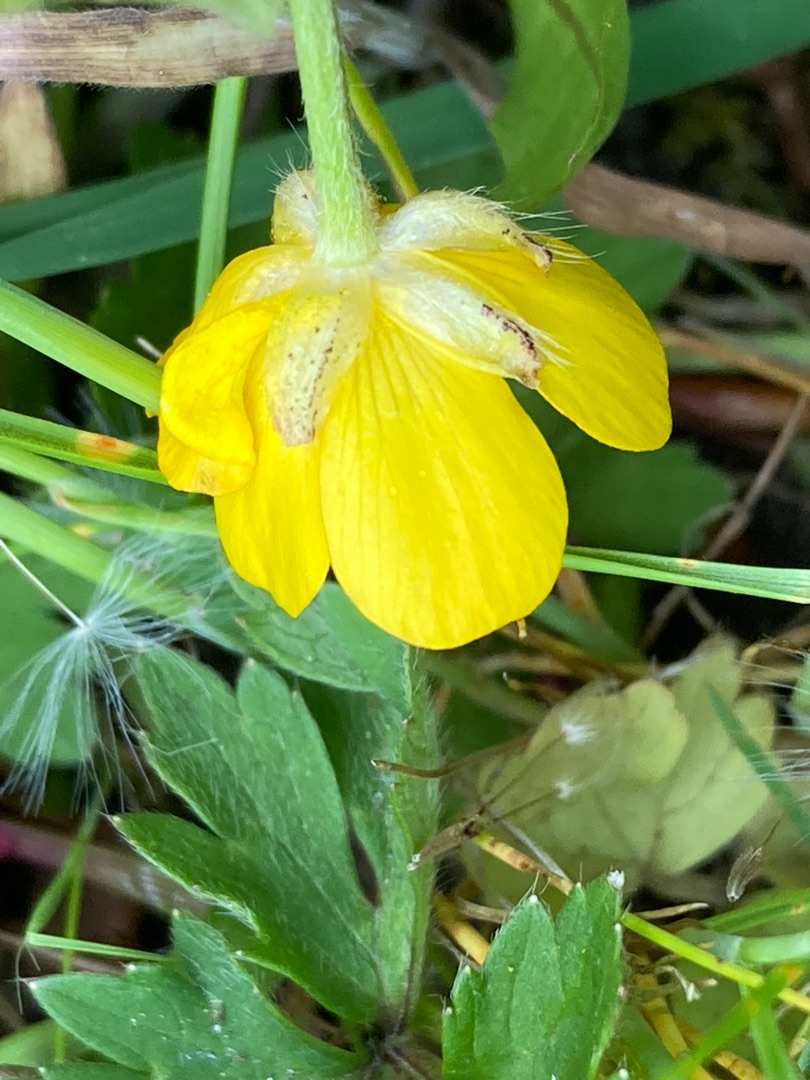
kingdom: Plantae
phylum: Tracheophyta
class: Magnoliopsida
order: Ranunculales
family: Ranunculaceae
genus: Ranunculus
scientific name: Ranunculus repens
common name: Lav ranunkel
